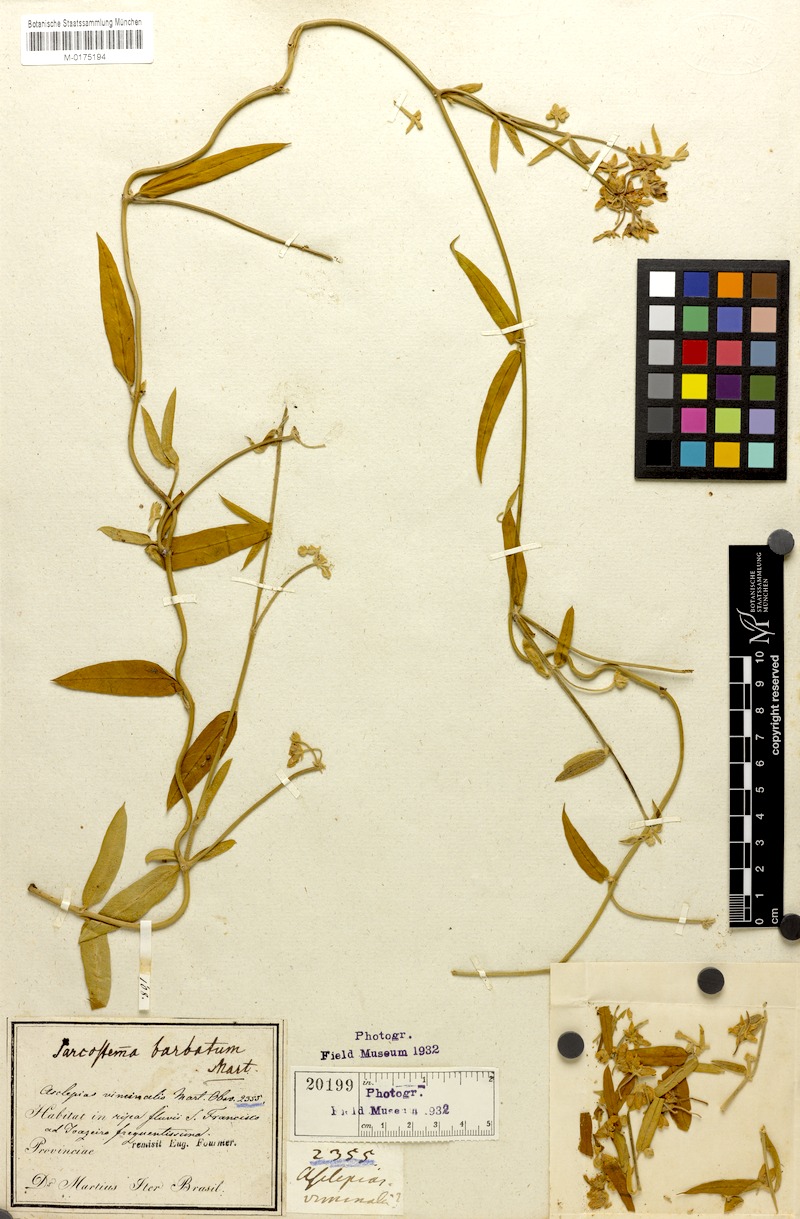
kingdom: Plantae
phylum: Tracheophyta
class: Magnoliopsida
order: Gentianales
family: Apocynaceae
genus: Funastrum
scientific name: Funastrum clausum
